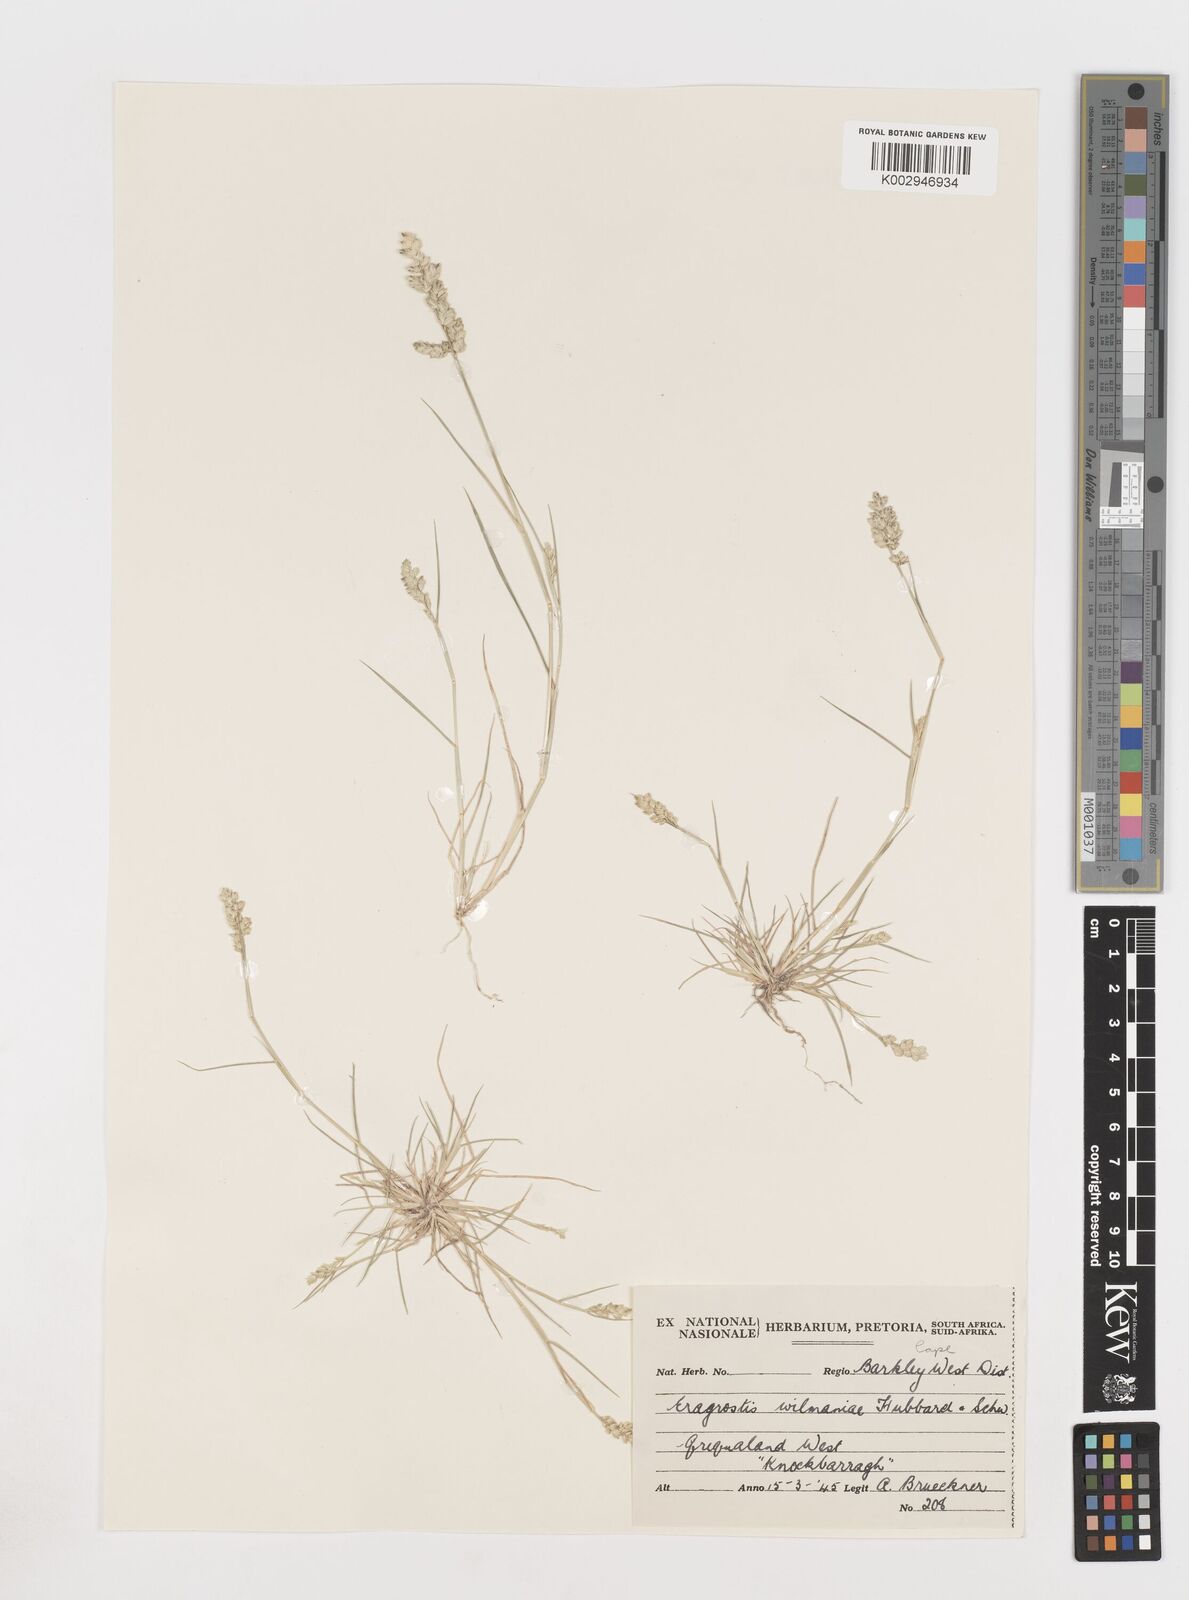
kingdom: Plantae
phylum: Tracheophyta
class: Liliopsida
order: Poales
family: Poaceae
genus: Eragrostis
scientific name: Eragrostis macrochlamys
